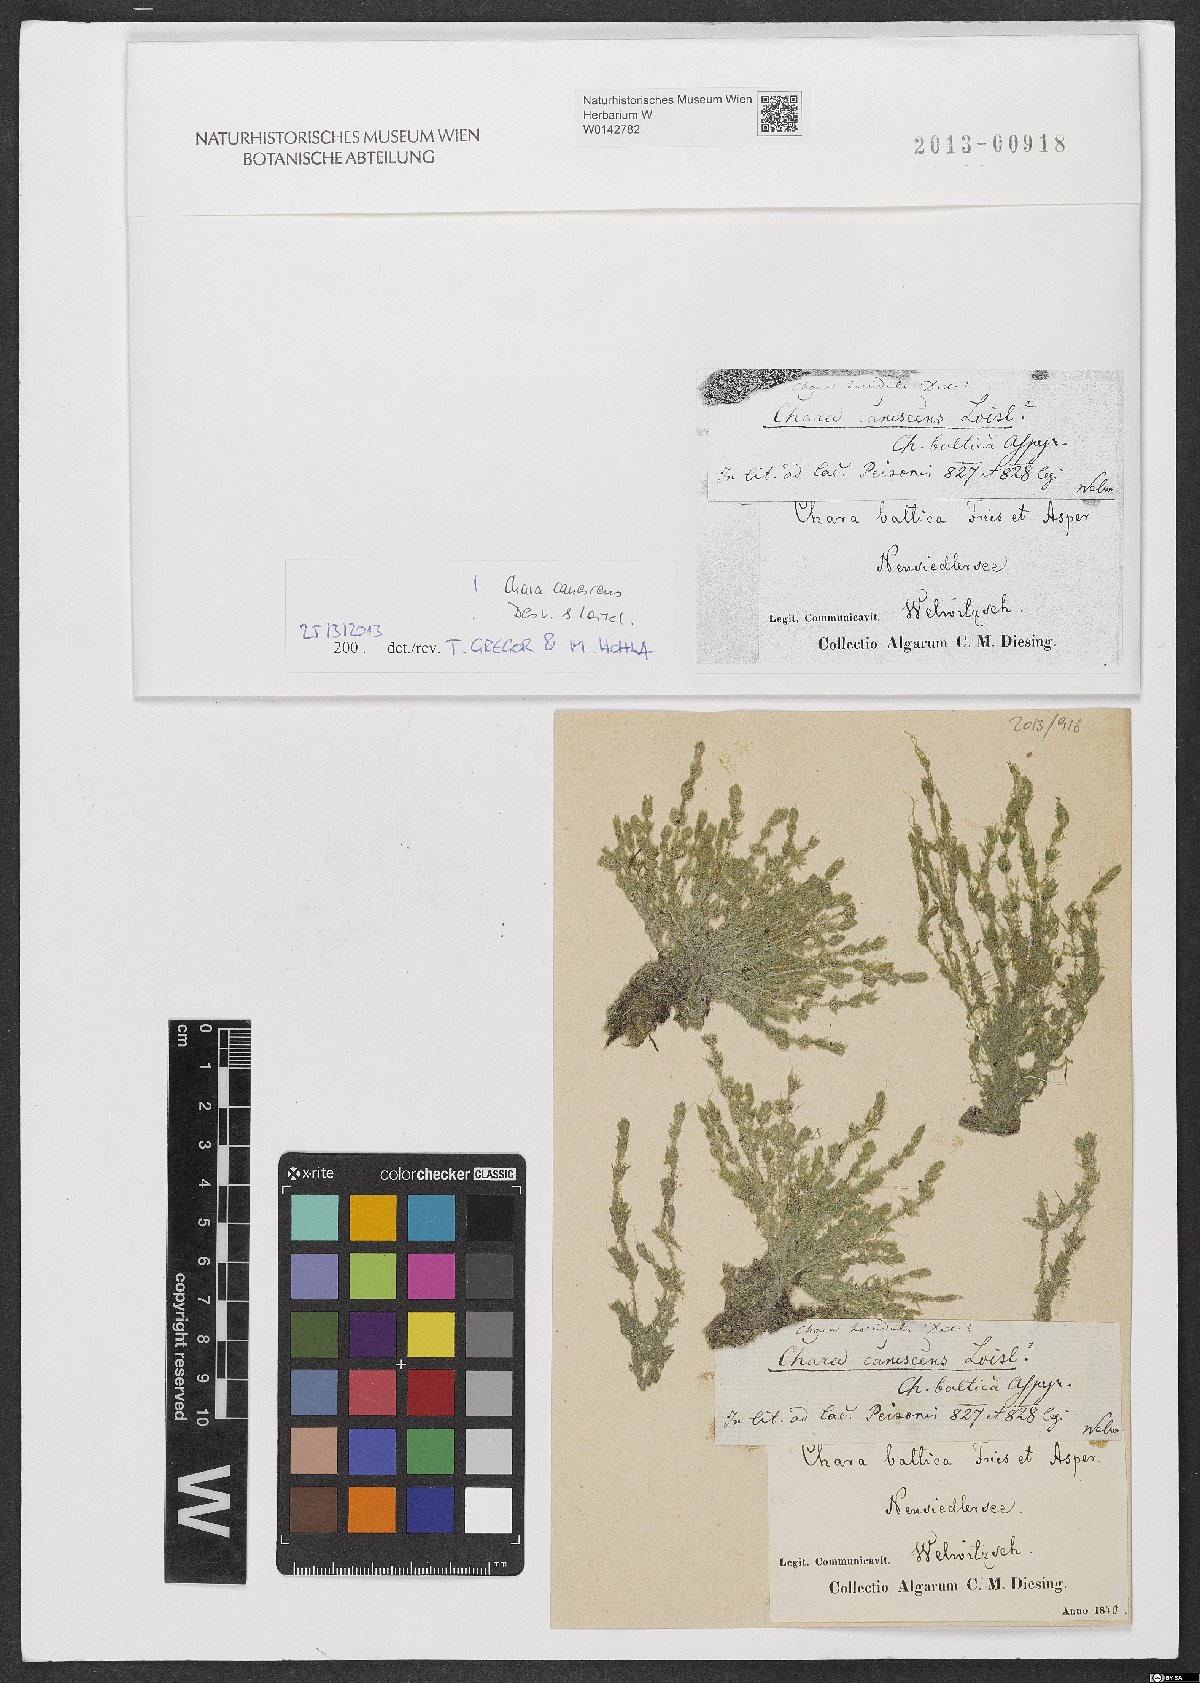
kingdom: Plantae
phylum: Charophyta
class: Charophyceae
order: Charales
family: Characeae
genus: Chara
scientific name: Chara canescens
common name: Bearded stonewort
